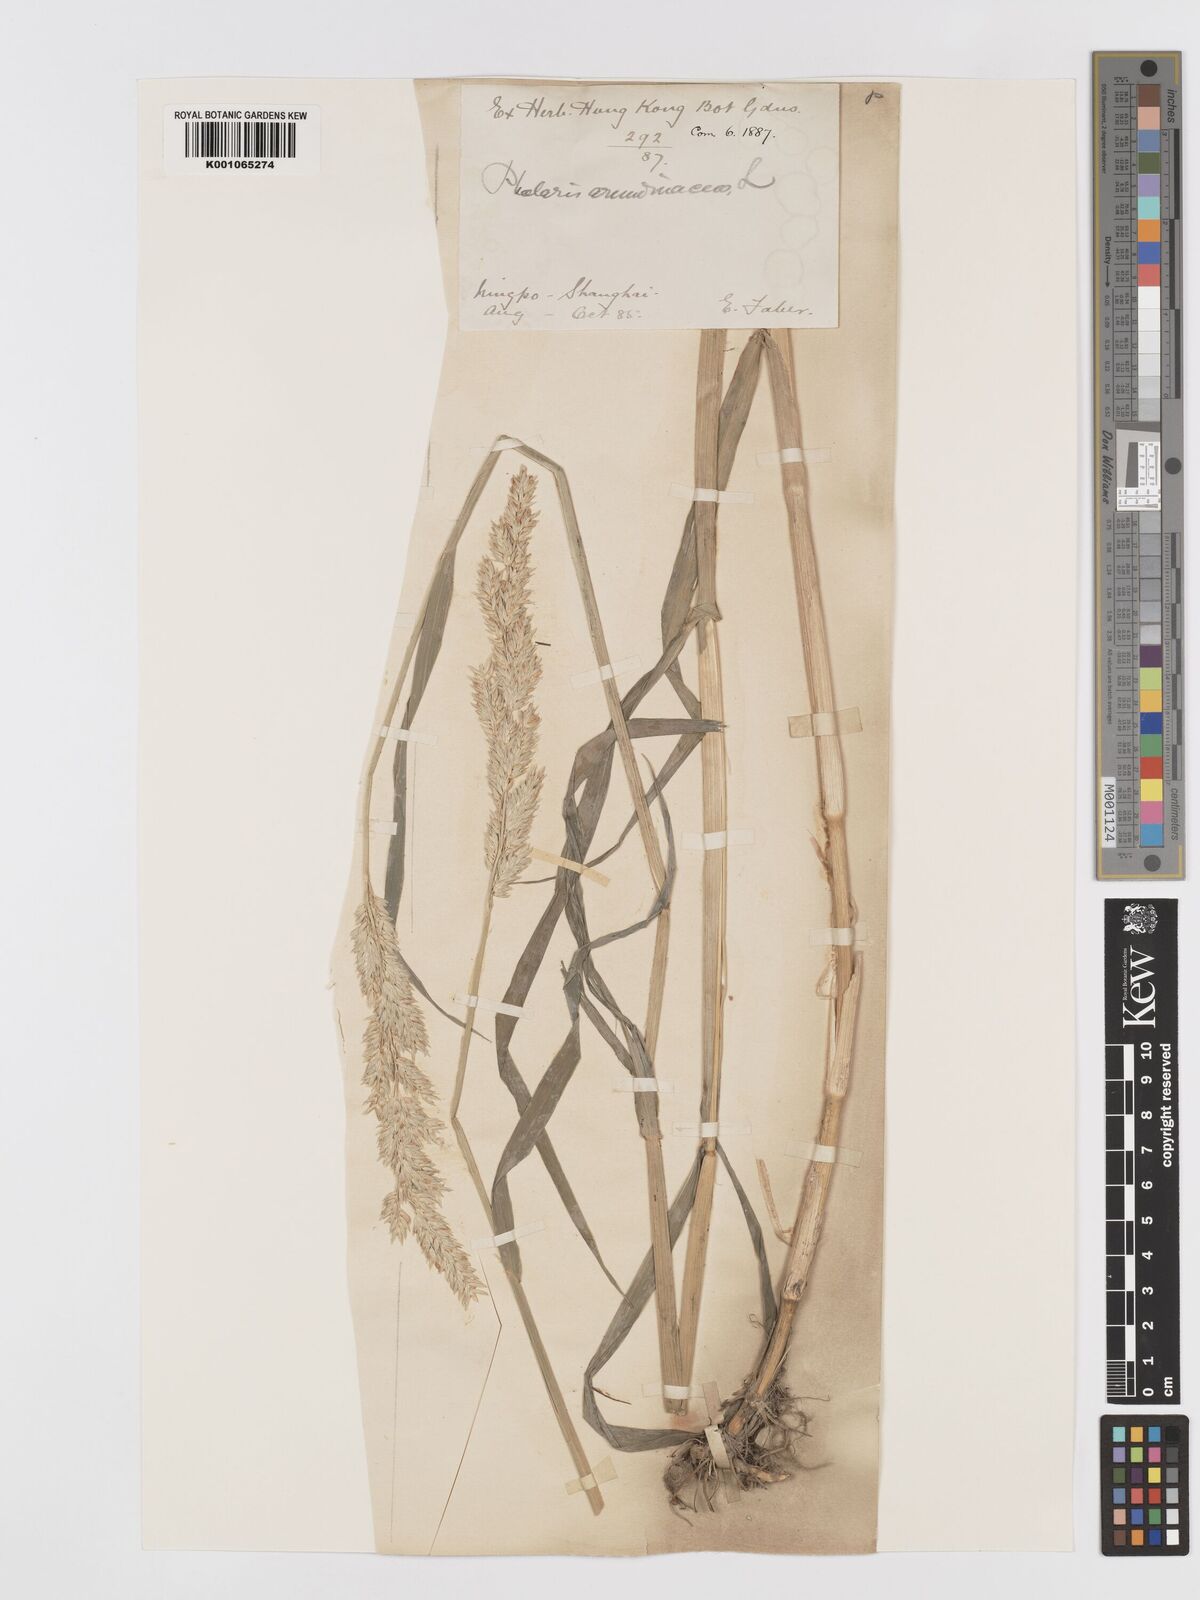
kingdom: Plantae
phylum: Tracheophyta
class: Liliopsida
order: Poales
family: Poaceae
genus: Phalaris
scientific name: Phalaris arundinacea
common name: Reed canary-grass
